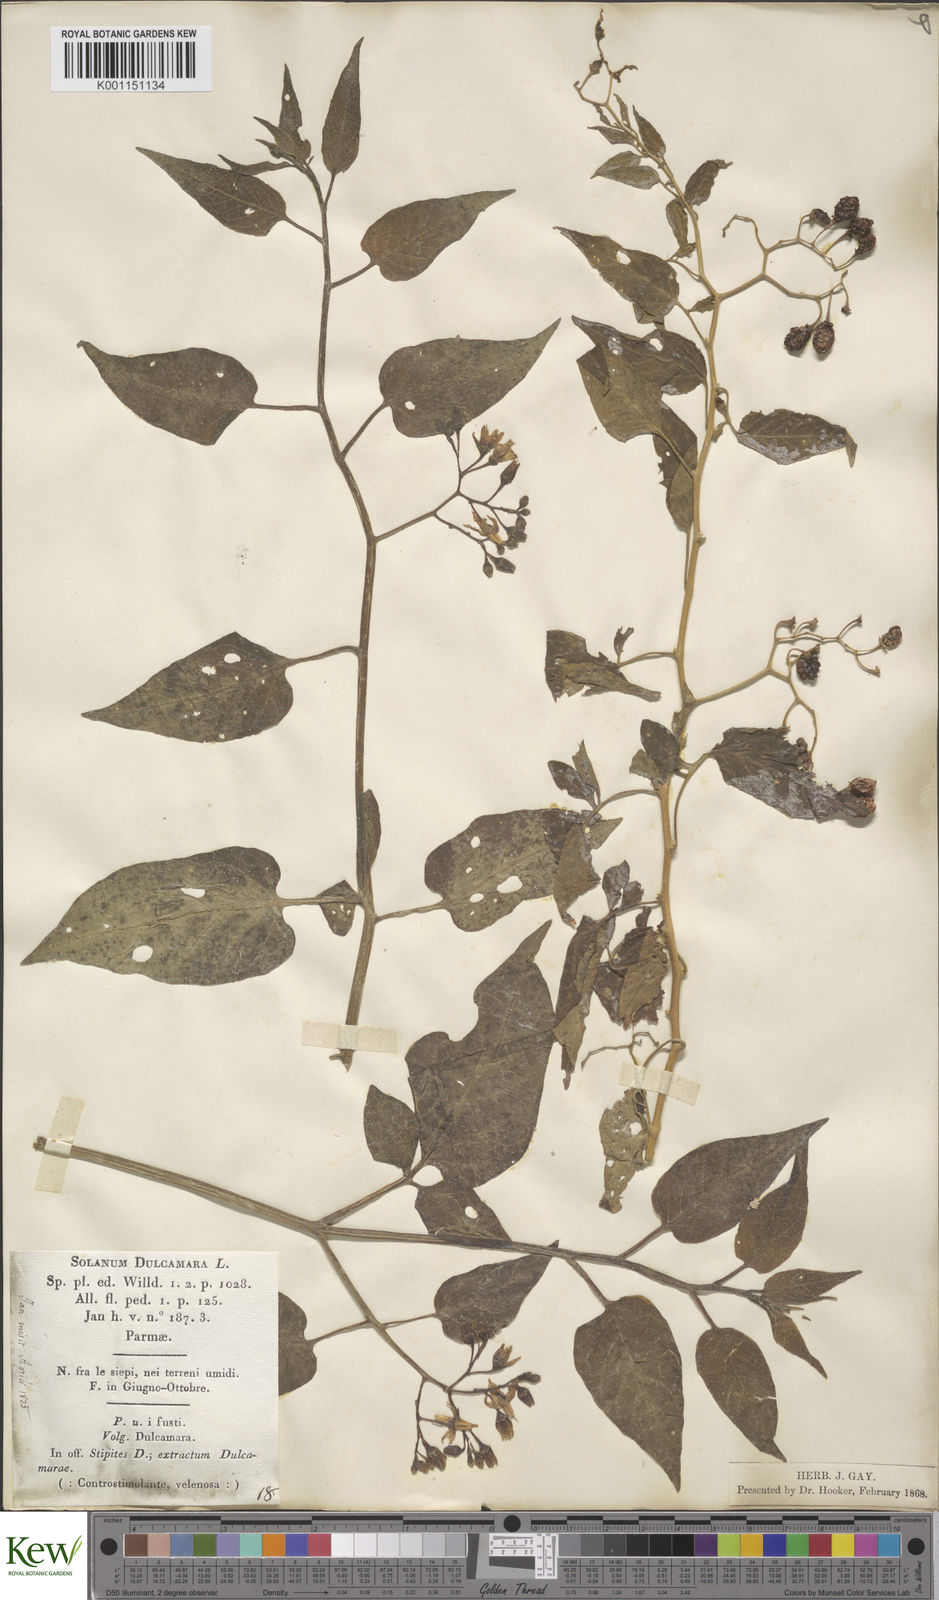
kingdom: Plantae
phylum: Tracheophyta
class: Magnoliopsida
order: Solanales
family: Solanaceae
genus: Solanum
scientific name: Solanum dulcamara
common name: Climbing nightshade
